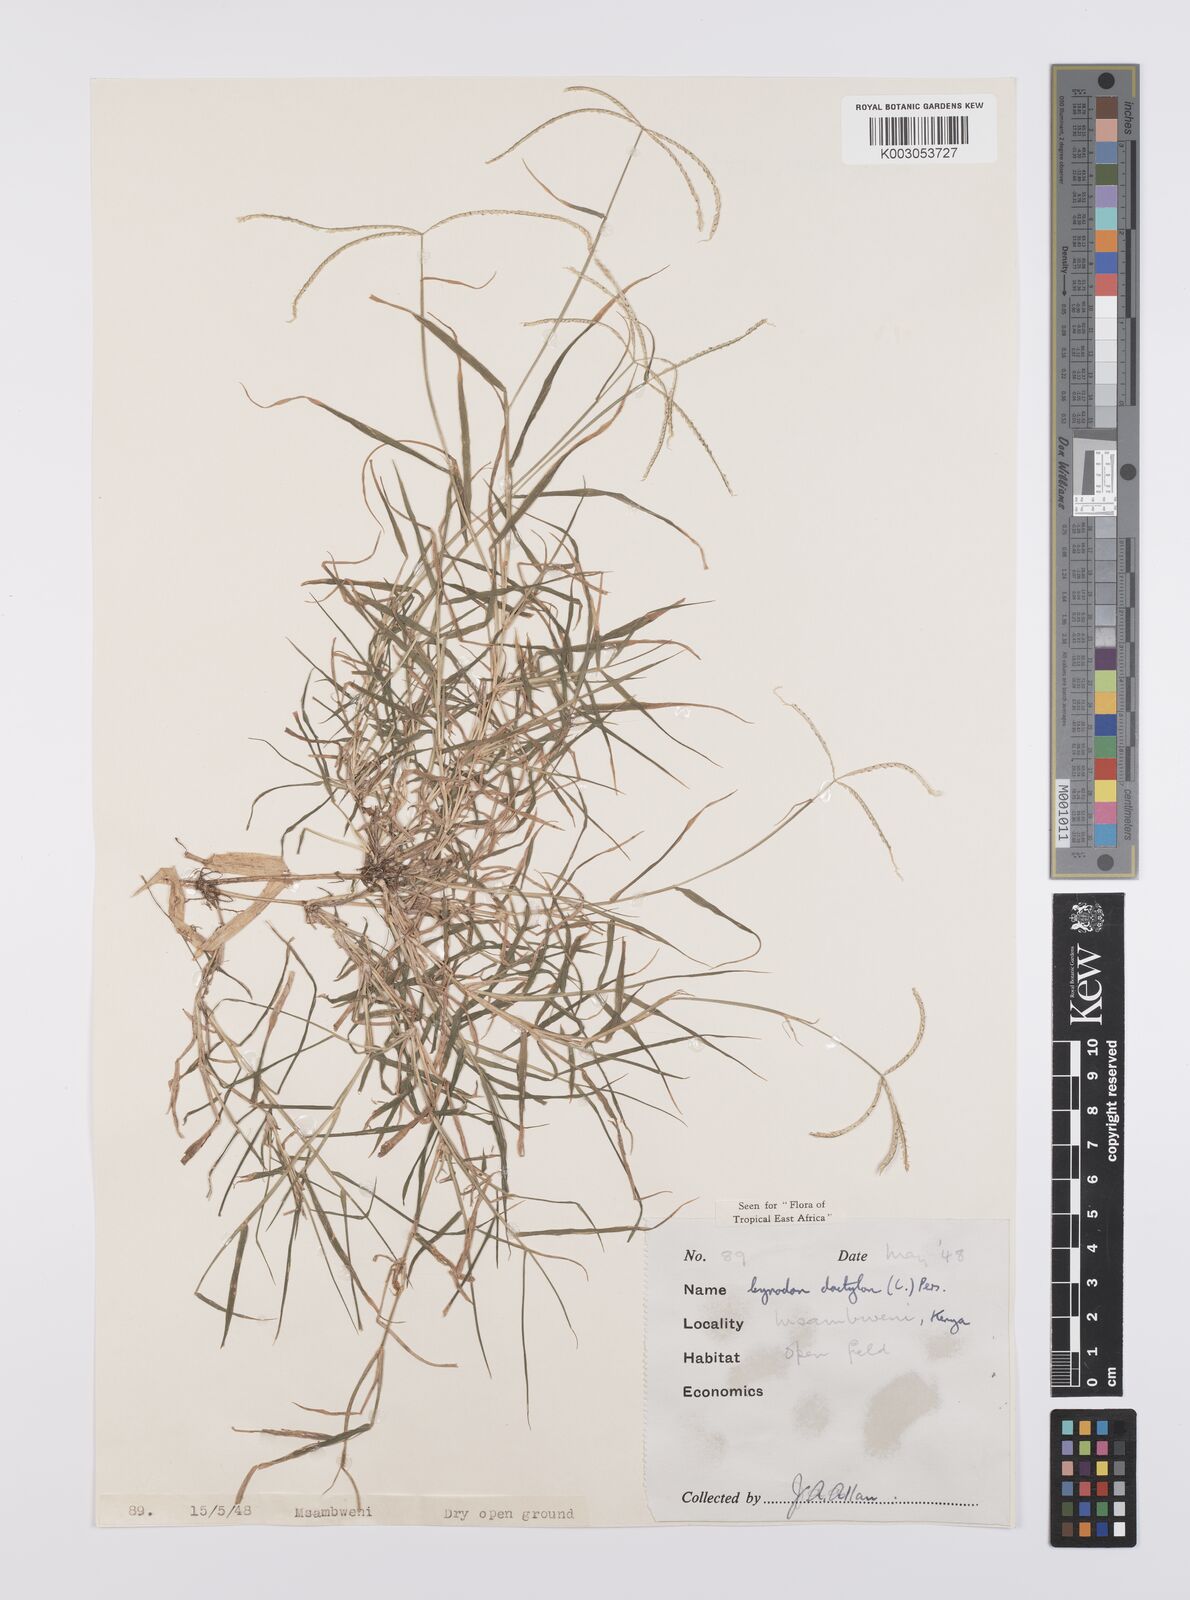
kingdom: Plantae
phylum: Tracheophyta
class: Liliopsida
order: Poales
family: Poaceae
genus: Cynodon
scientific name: Cynodon dactylon
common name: Bermuda grass
